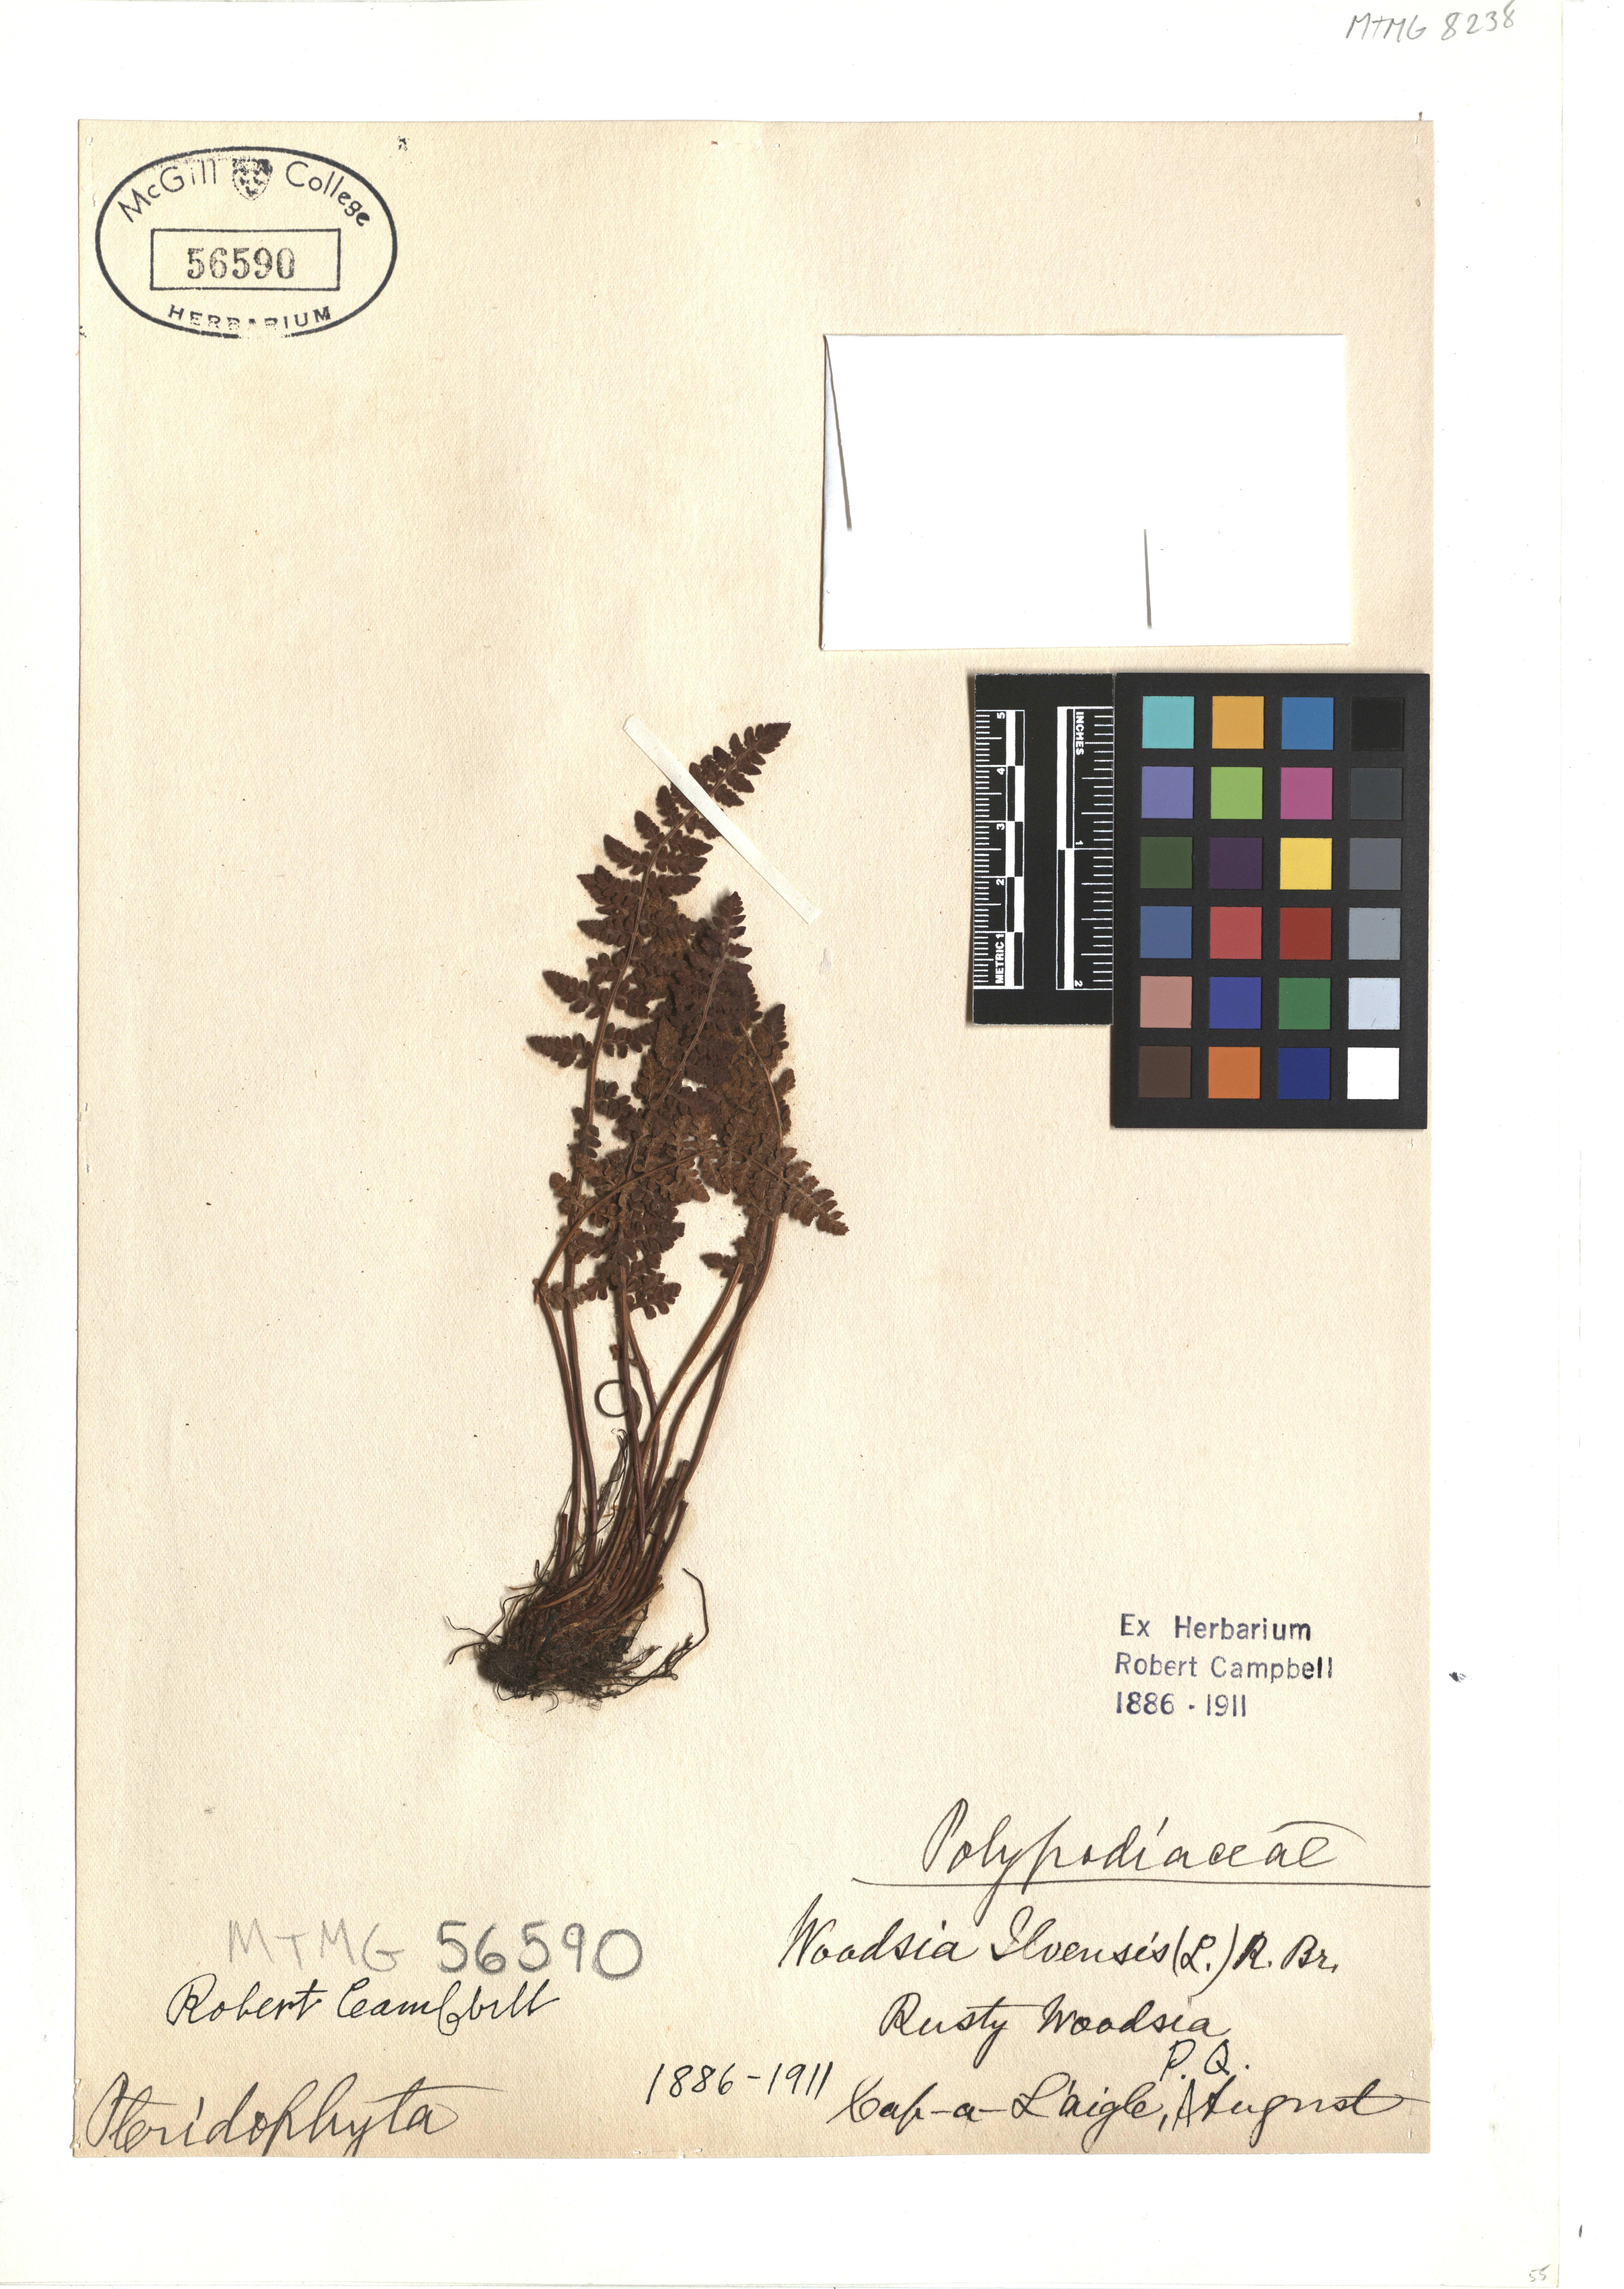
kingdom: Plantae
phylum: Tracheophyta
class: Polypodiopsida
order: Polypodiales
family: Woodsiaceae
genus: Woodsia
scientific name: Woodsia ilvensis
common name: Fragrant woodsia
